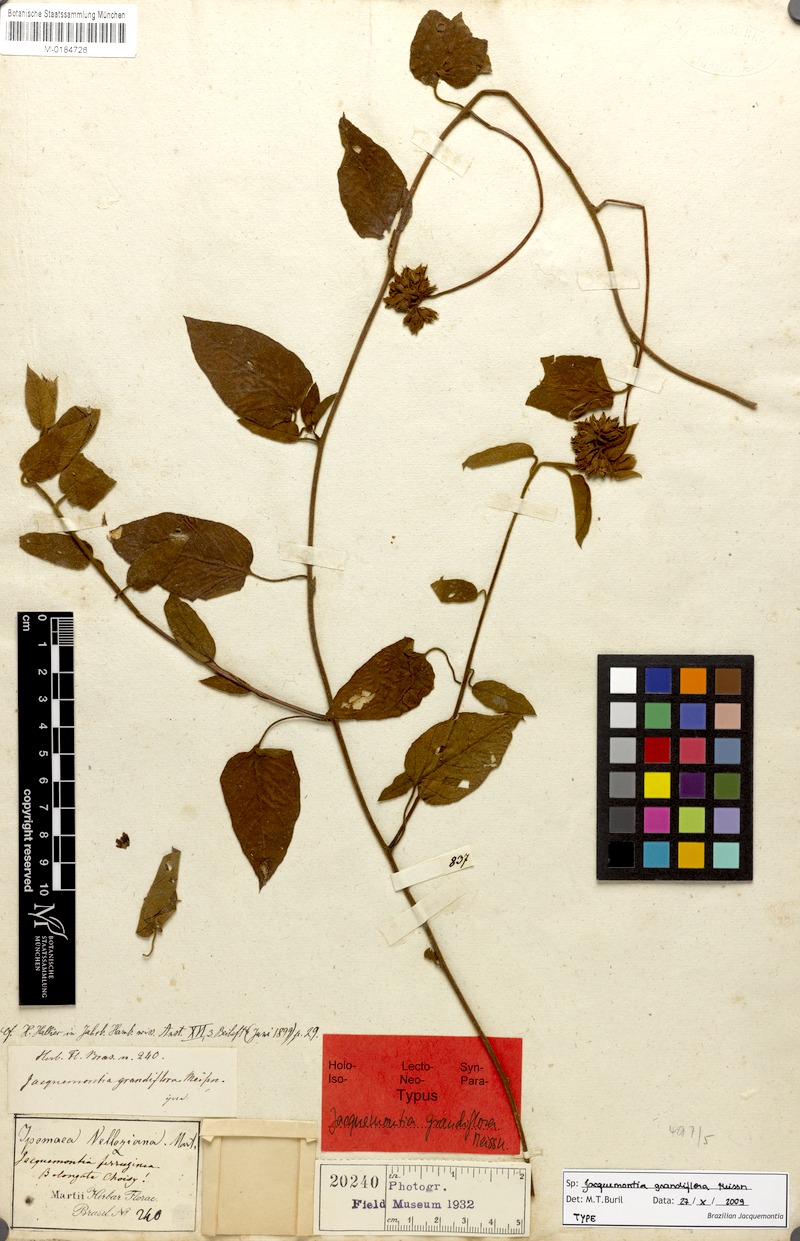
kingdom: Plantae
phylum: Tracheophyta
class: Magnoliopsida
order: Solanales
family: Convolvulaceae
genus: Jacquemontia
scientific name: Jacquemontia velloziana
